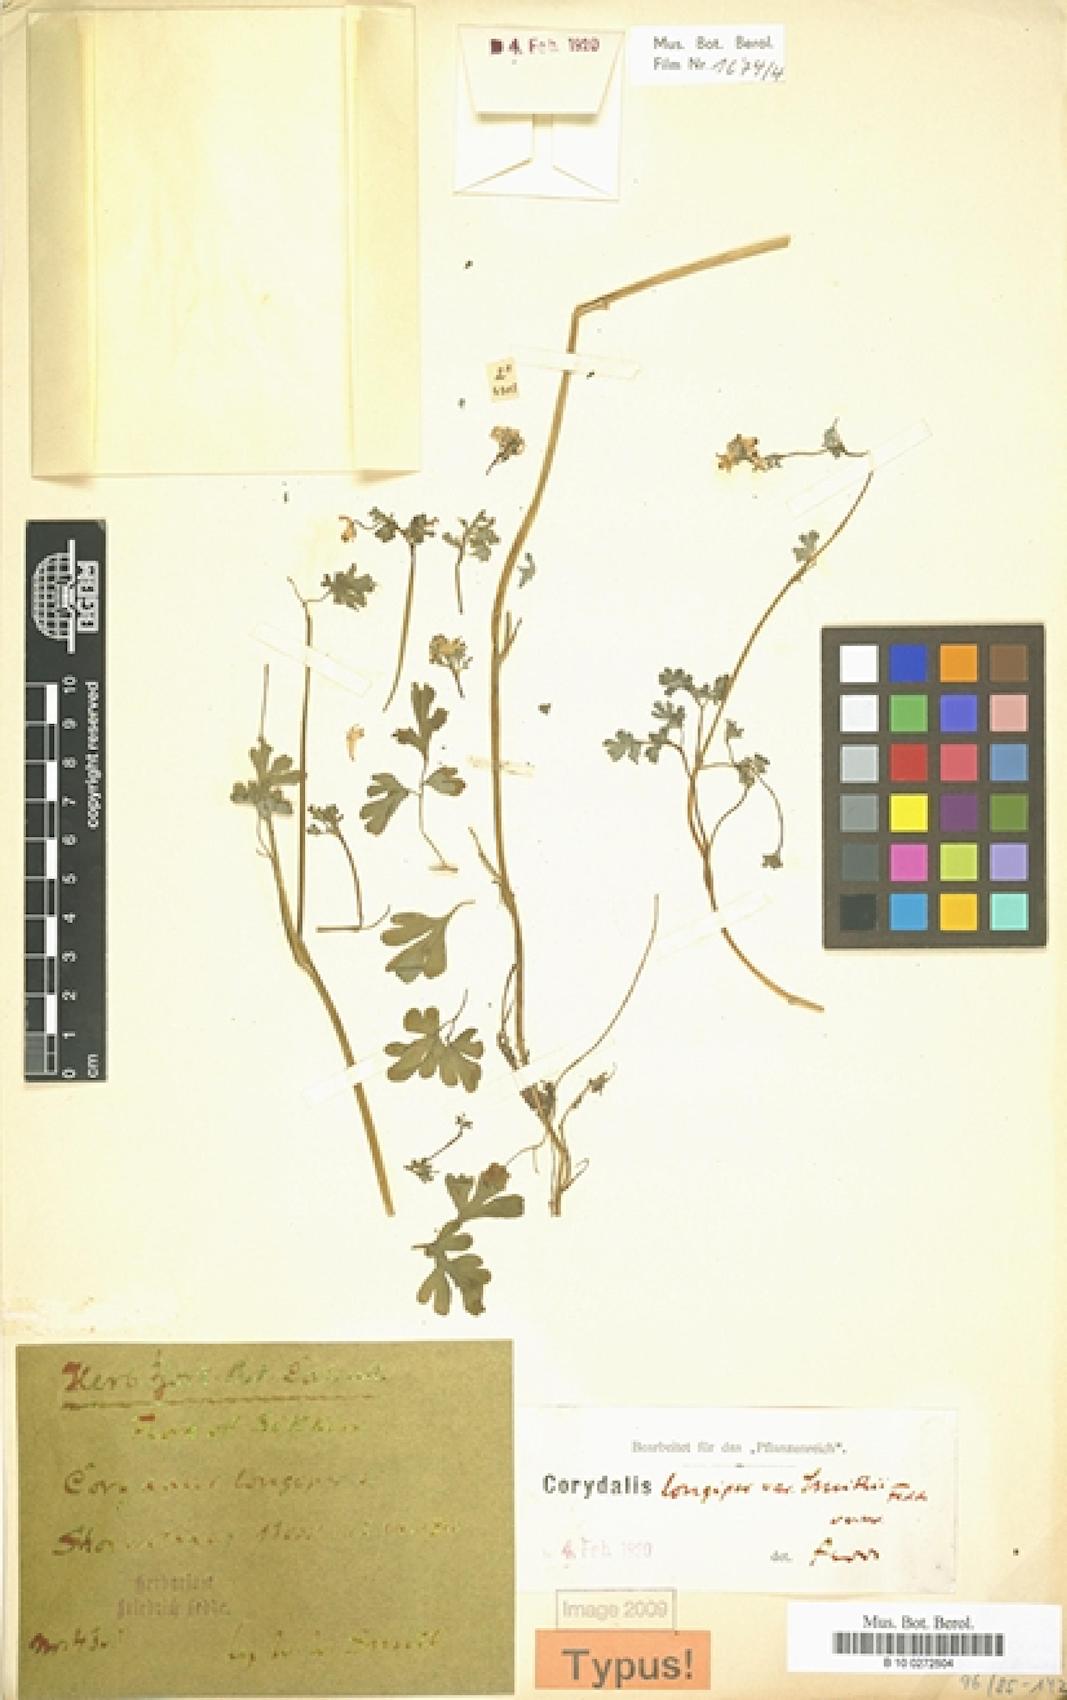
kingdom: Plantae
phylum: Tracheophyta
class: Magnoliopsida
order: Ranunculales
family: Papaveraceae
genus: Corydalis
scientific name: Corydalis pseudolongipes
